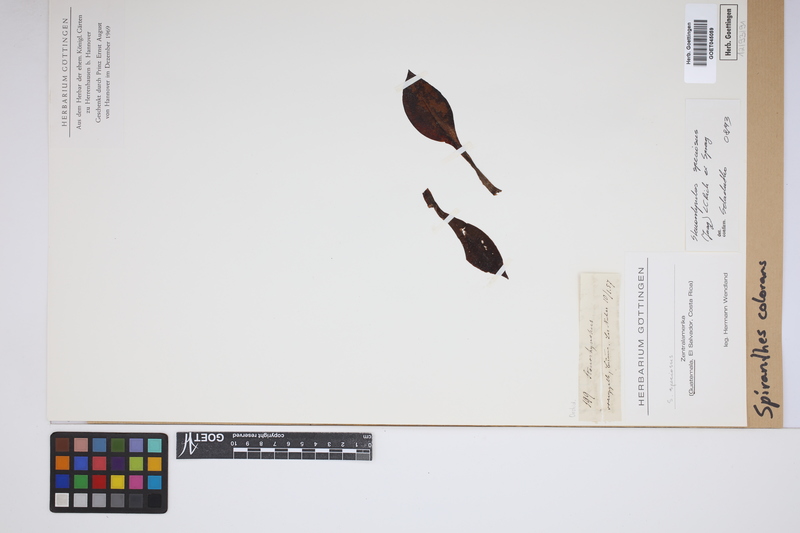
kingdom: Plantae
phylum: Tracheophyta
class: Liliopsida
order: Asparagales
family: Orchidaceae
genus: Stenorrhynchos
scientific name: Stenorrhynchos speciosum
